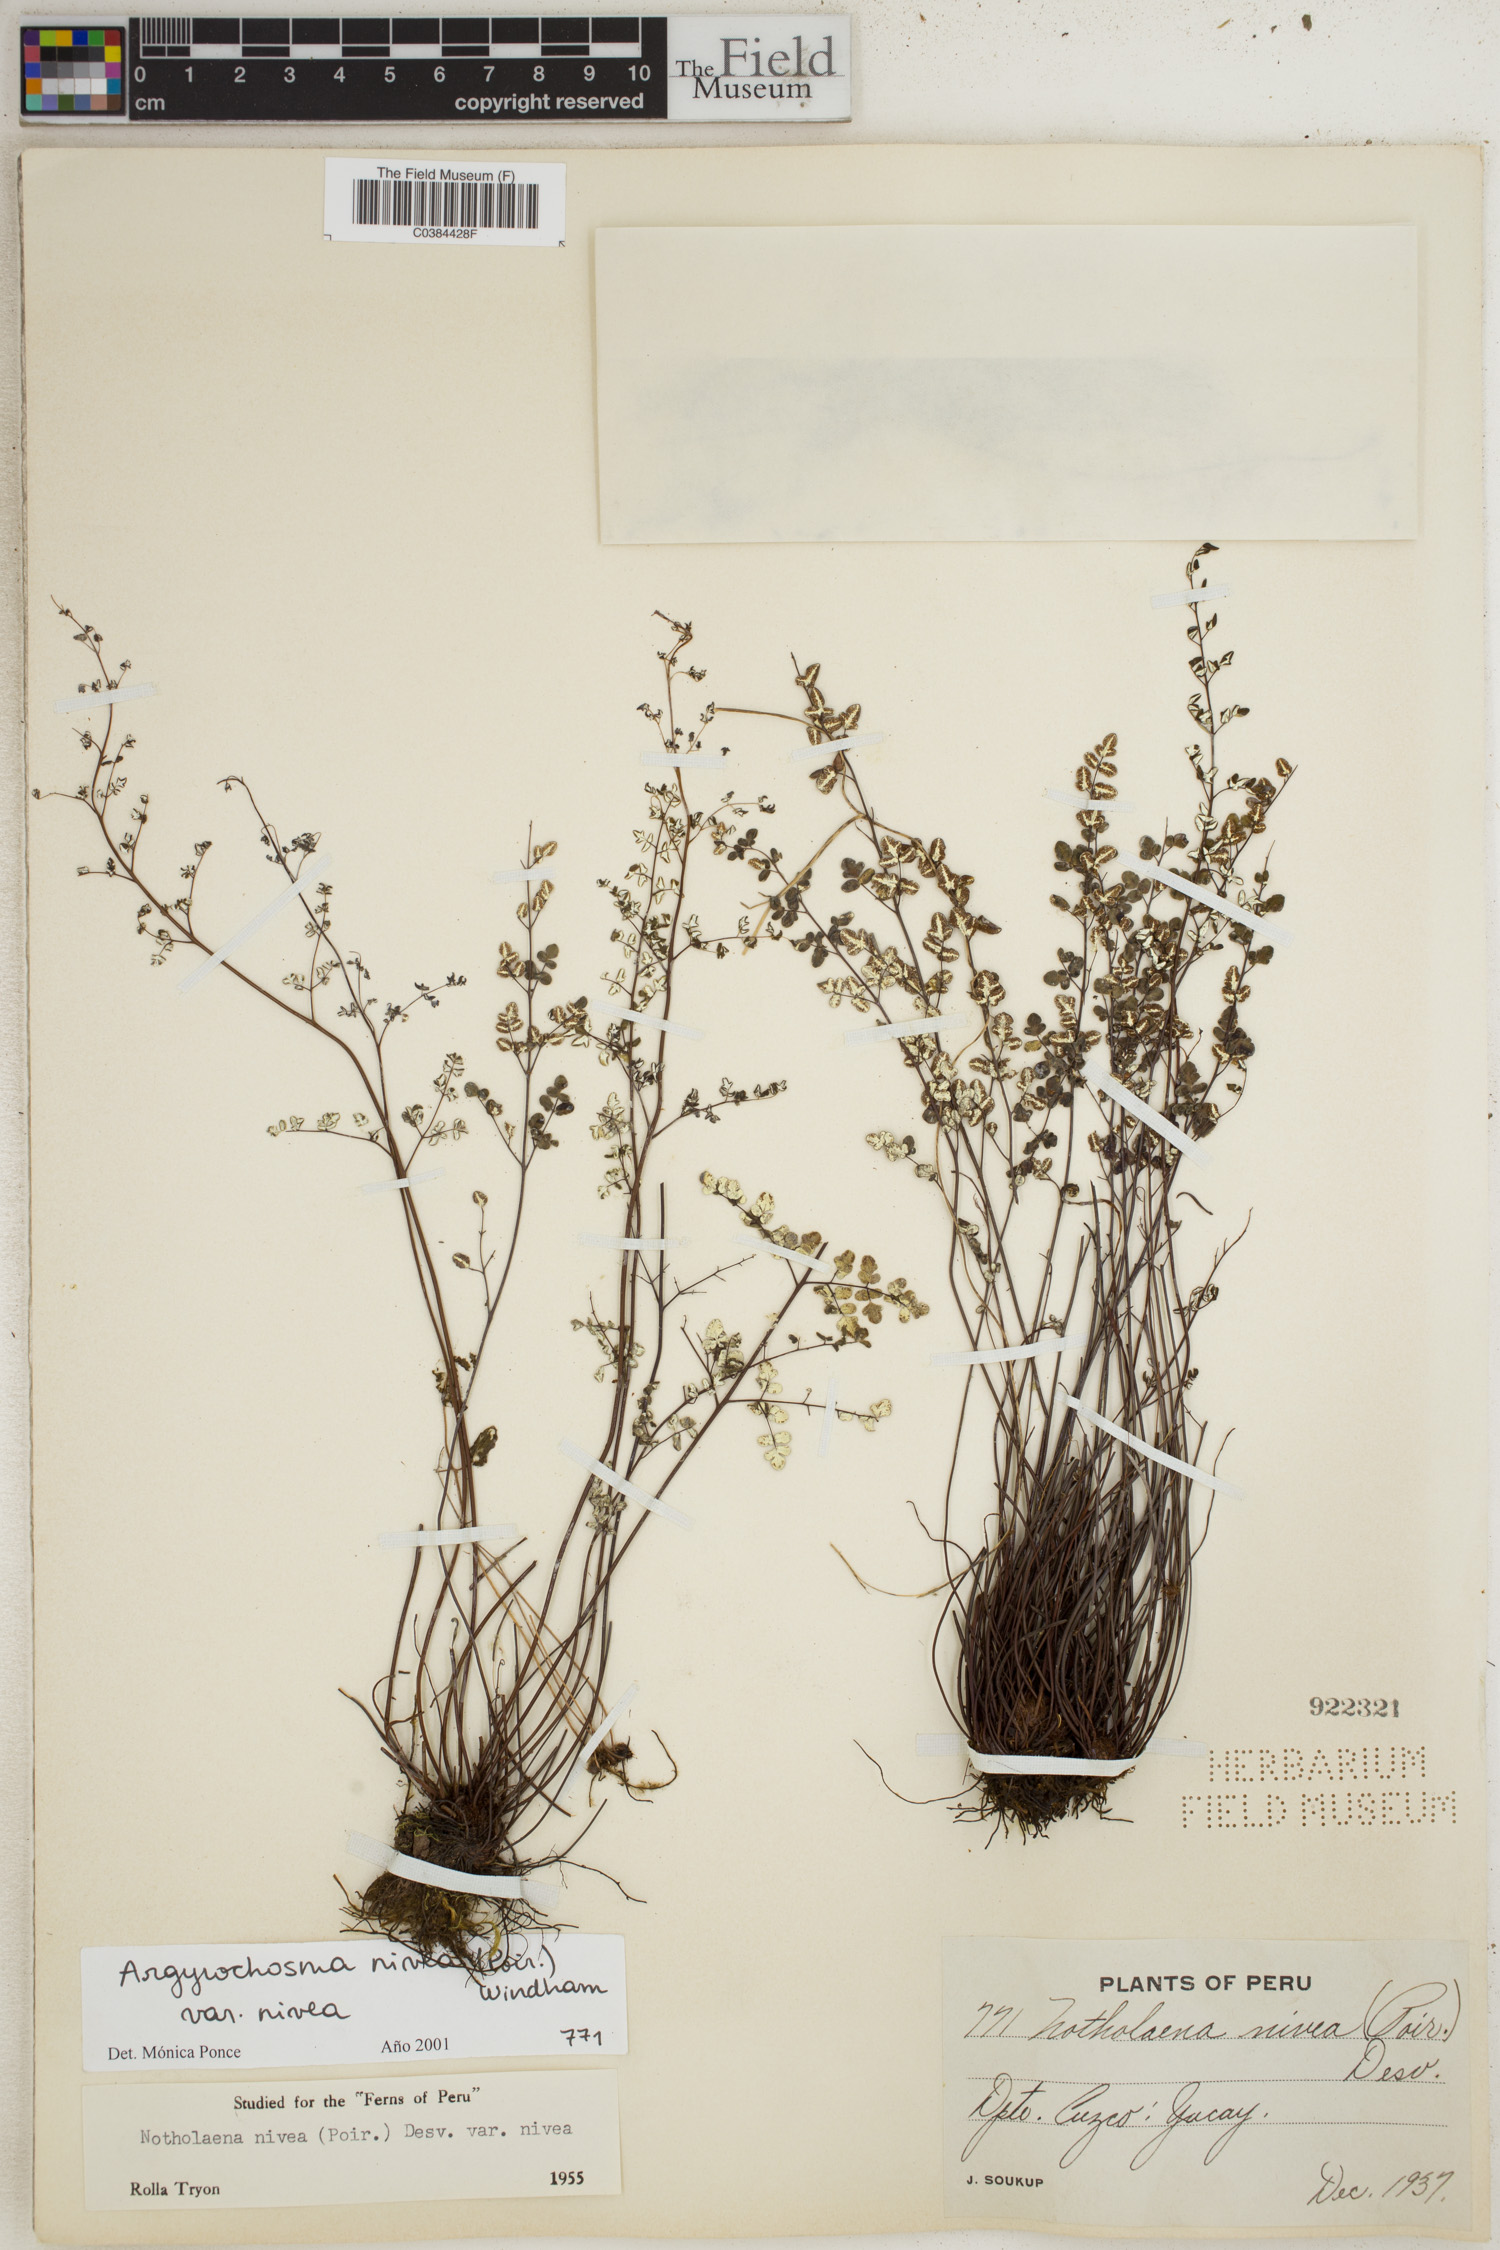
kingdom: Plantae
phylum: Tracheophyta
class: Polypodiopsida
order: Polypodiales
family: Pteridaceae
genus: Argyrochosma
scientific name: Argyrochosma nivea
